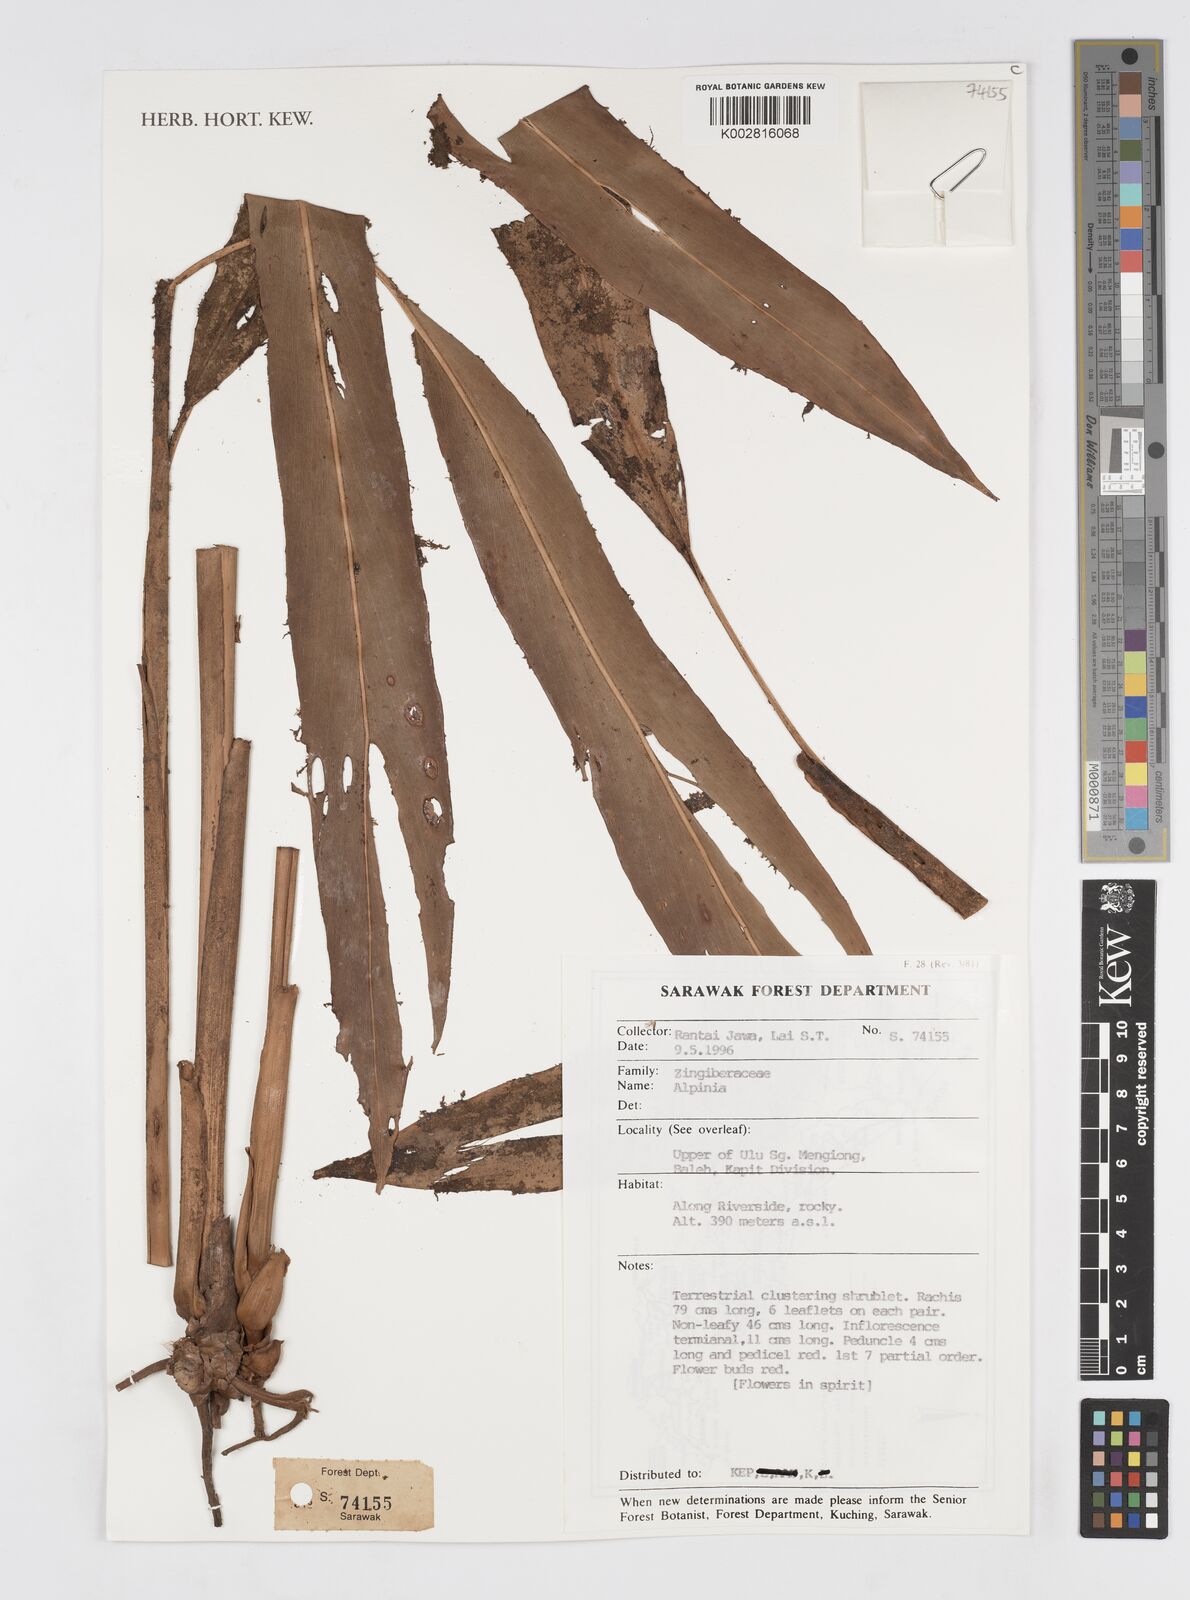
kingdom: Plantae
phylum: Tracheophyta
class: Liliopsida
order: Zingiberales
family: Zingiberaceae
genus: Alpinia
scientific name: Alpinia
